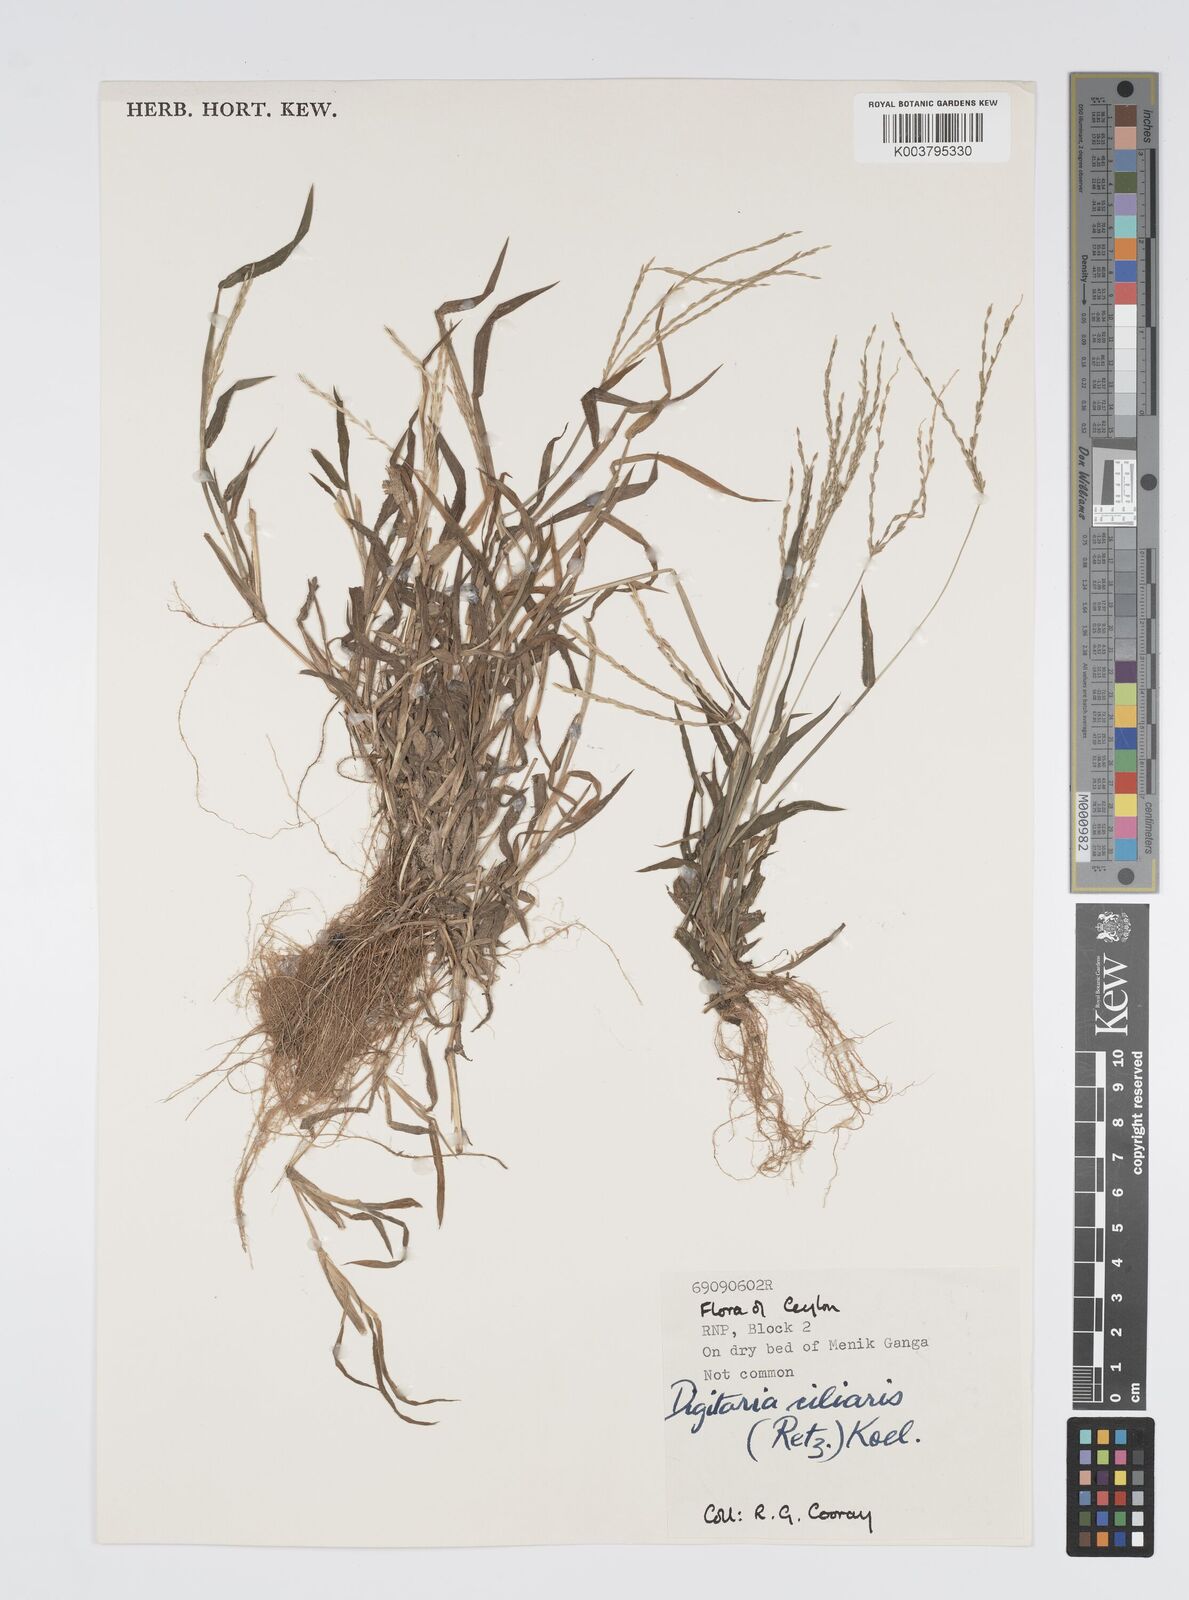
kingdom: Plantae
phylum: Tracheophyta
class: Liliopsida
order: Poales
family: Poaceae
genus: Digitaria
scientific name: Digitaria ciliaris
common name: Tropical finger-grass
